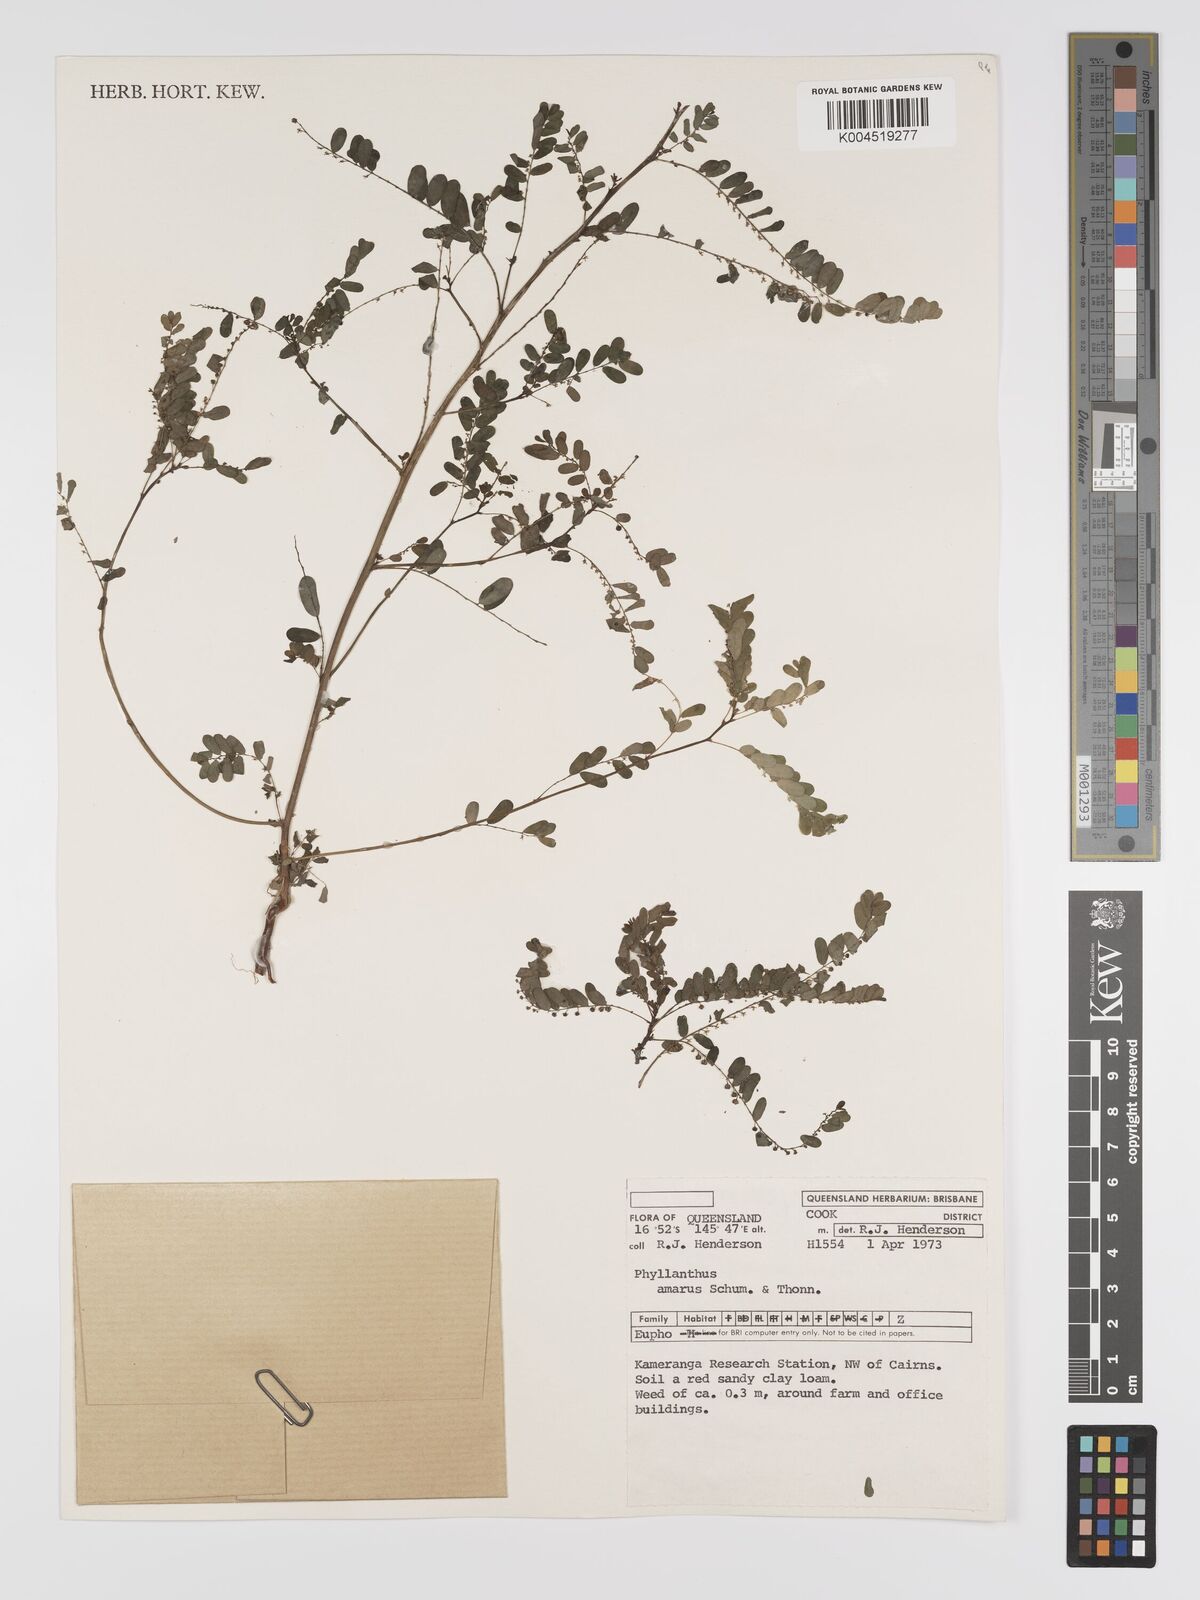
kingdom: Plantae
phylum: Tracheophyta
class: Magnoliopsida
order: Malpighiales
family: Phyllanthaceae
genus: Phyllanthus
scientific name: Phyllanthus amarus
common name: Carry me seed
